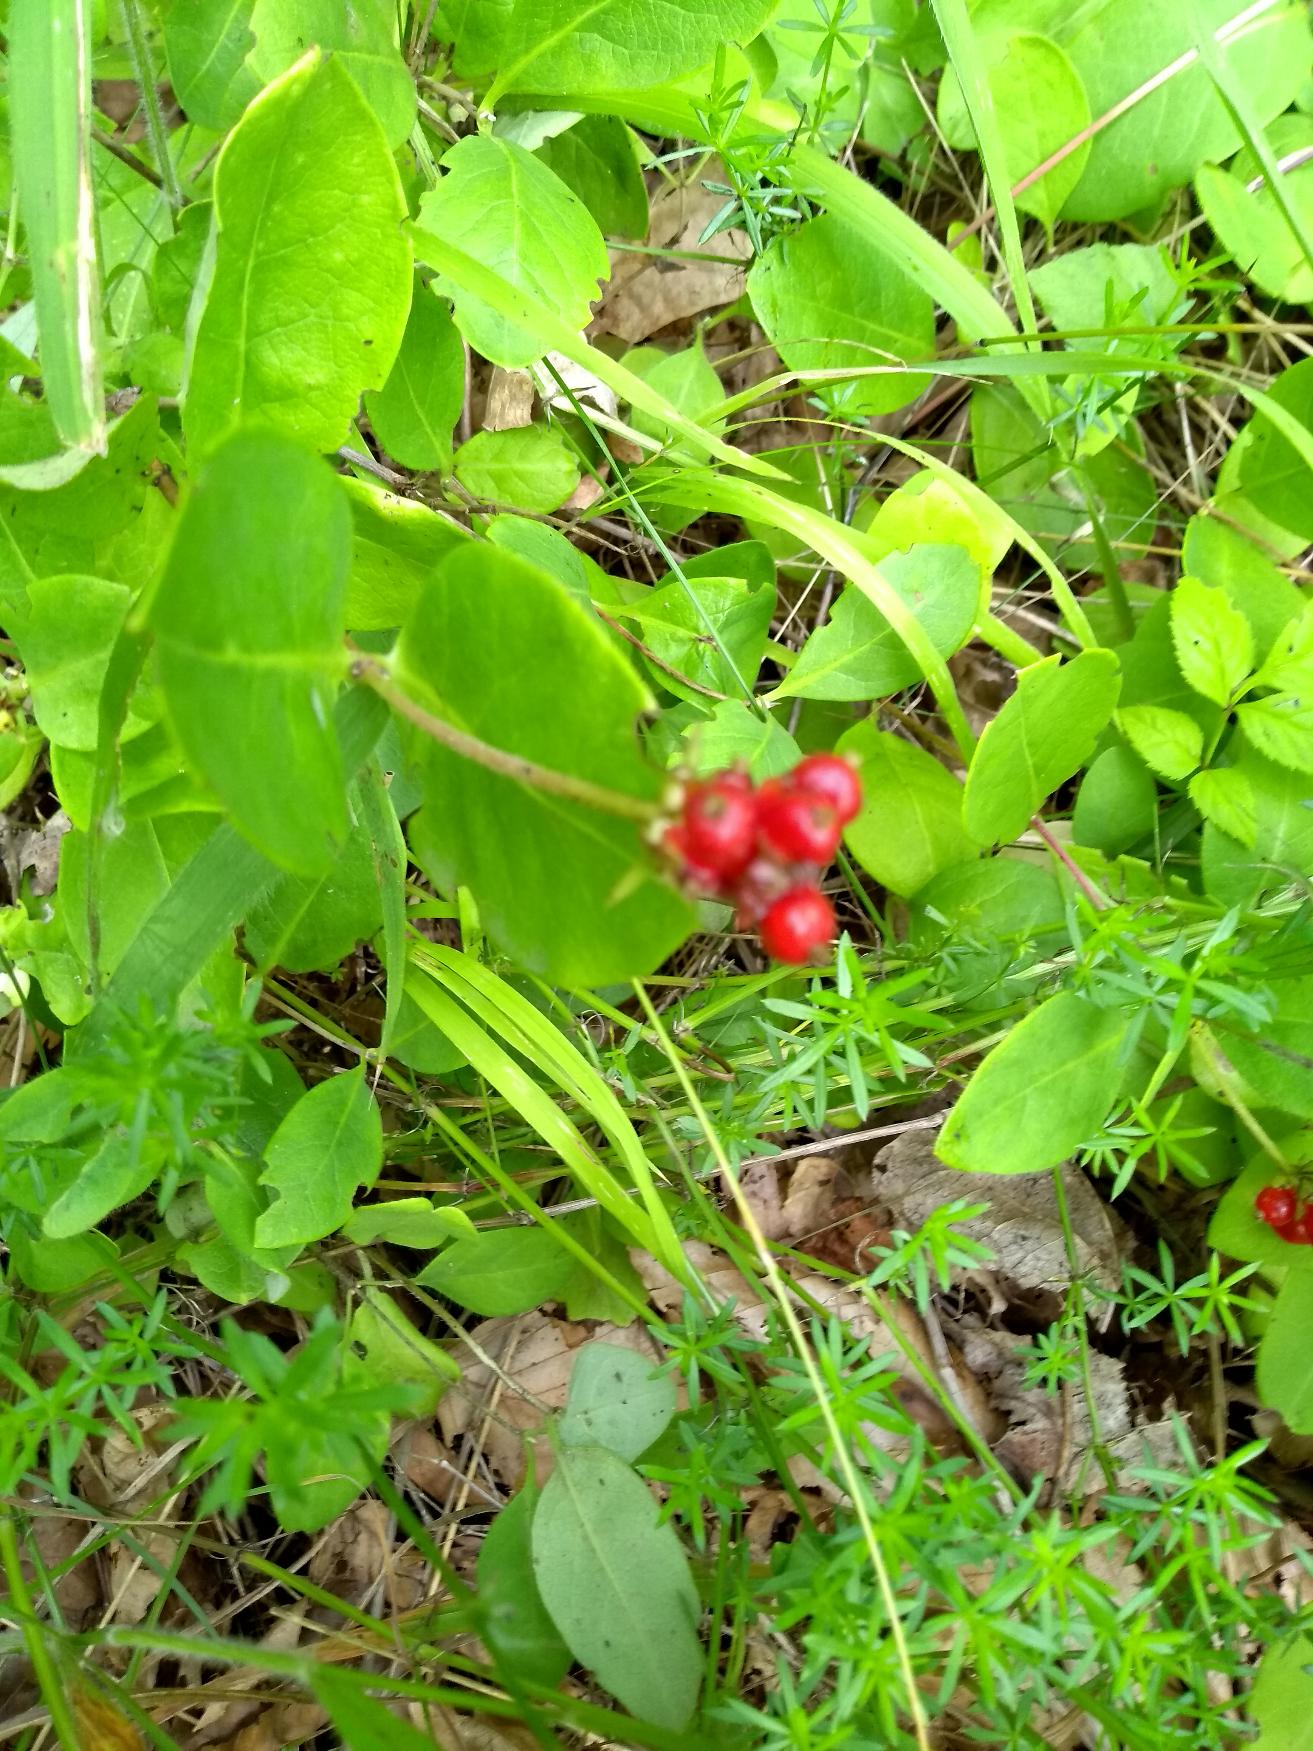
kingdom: Plantae
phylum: Tracheophyta
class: Magnoliopsida
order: Dipsacales
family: Caprifoliaceae
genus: Lonicera
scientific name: Lonicera periclymenum
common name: Almindelig gedeblad
